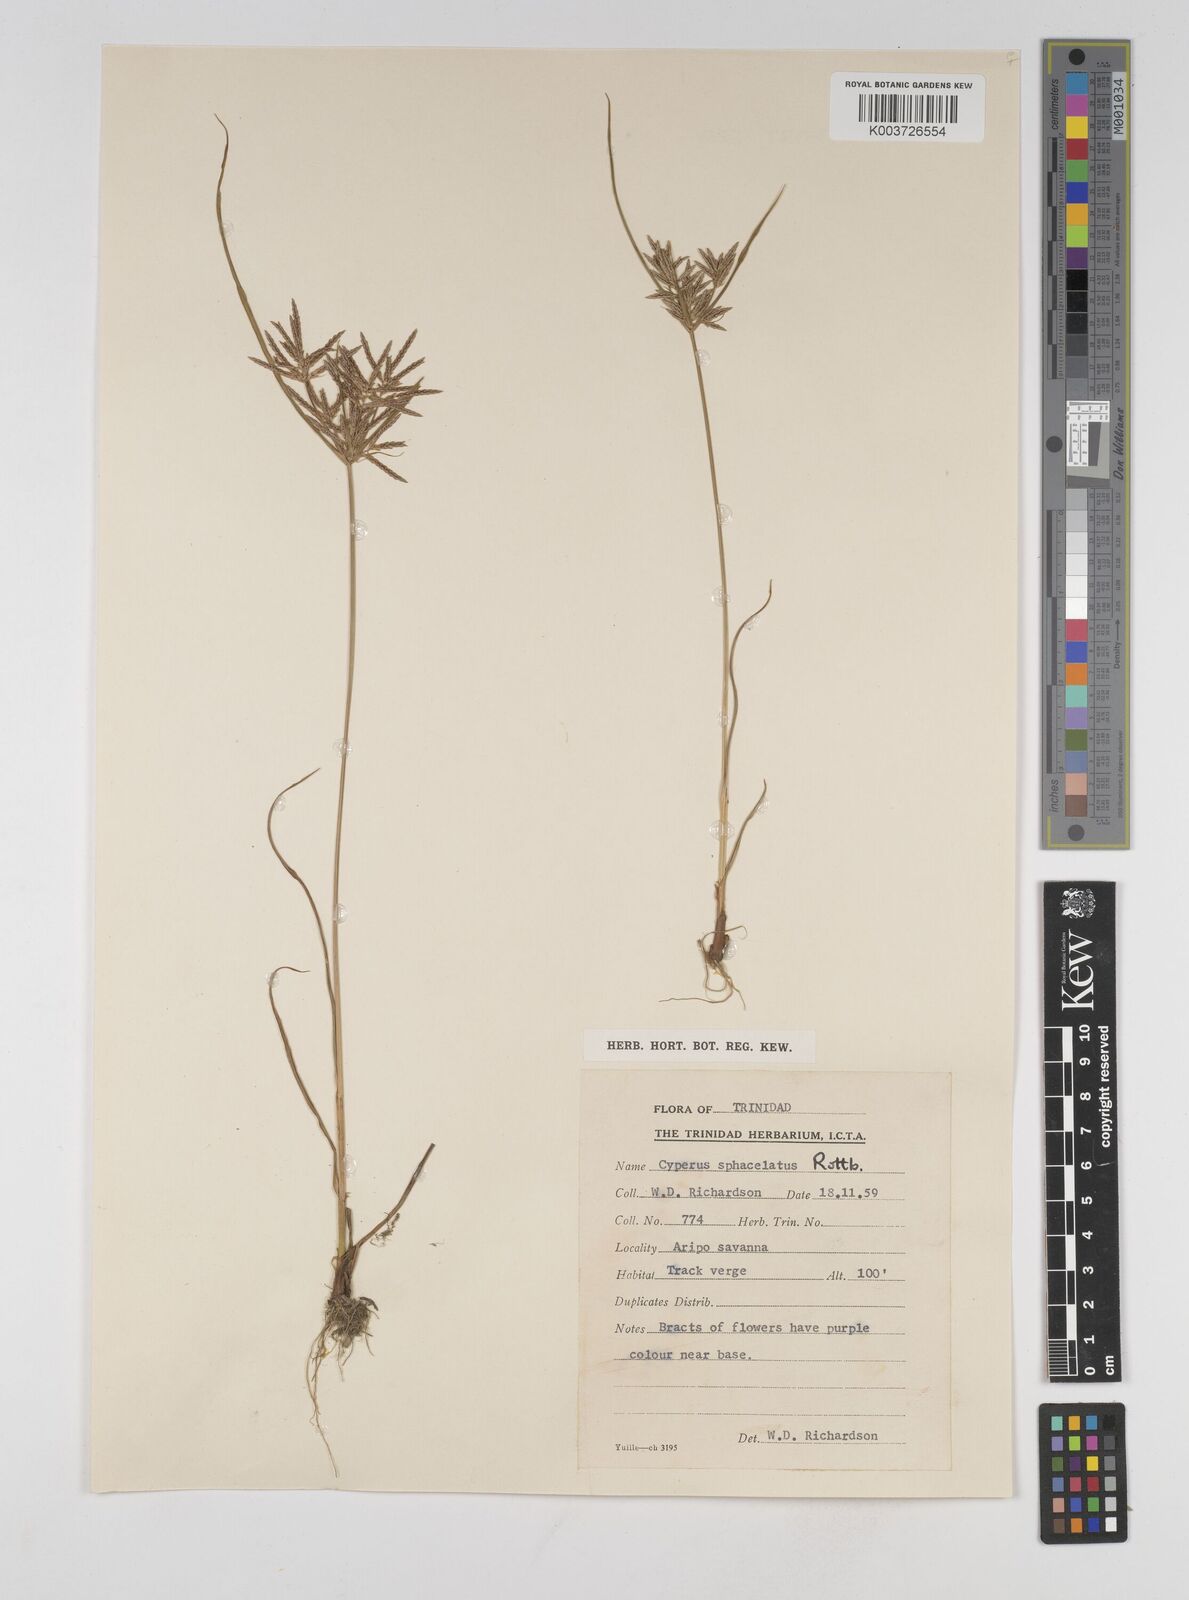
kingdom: Plantae
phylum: Tracheophyta
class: Liliopsida
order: Poales
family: Cyperaceae
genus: Cyperus
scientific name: Cyperus sphacelatus
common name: Roadside flatsedge
